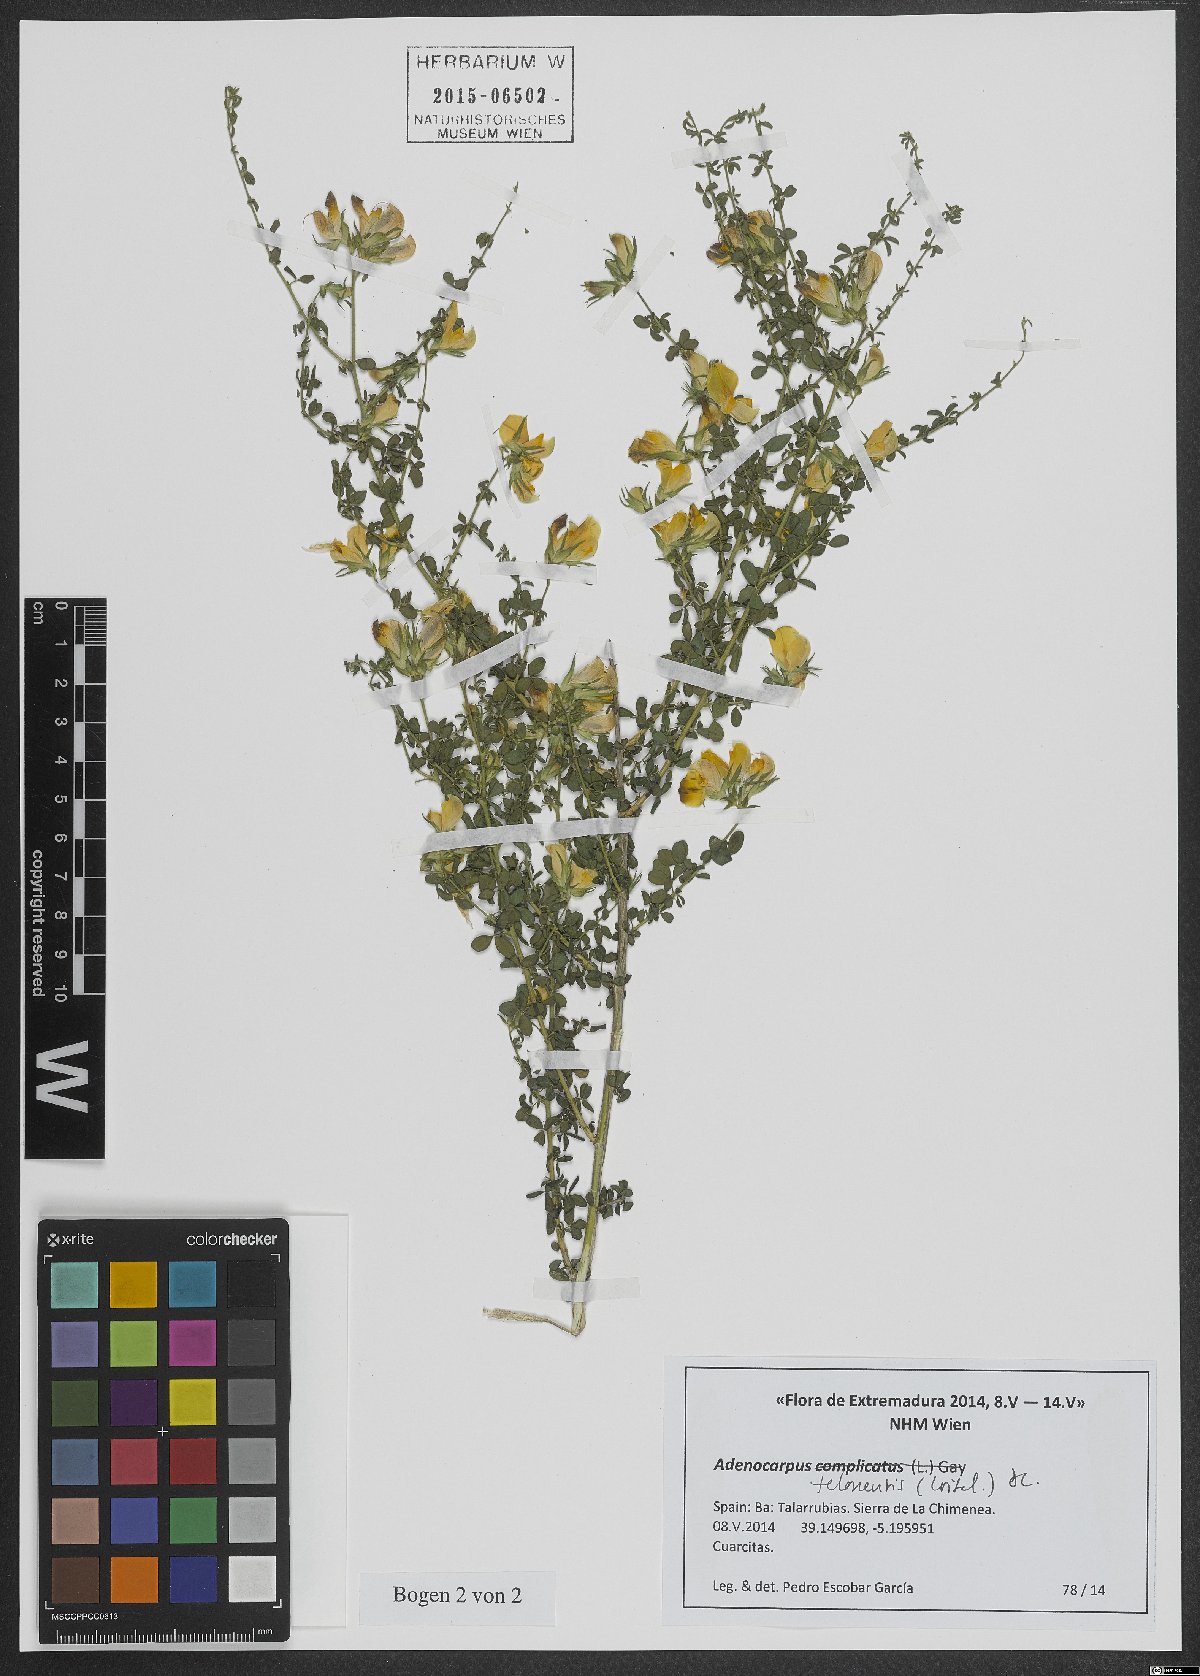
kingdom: Plantae
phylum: Tracheophyta
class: Magnoliopsida
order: Fabales
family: Fabaceae
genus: Adenocarpus
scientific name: Adenocarpus telonensis
